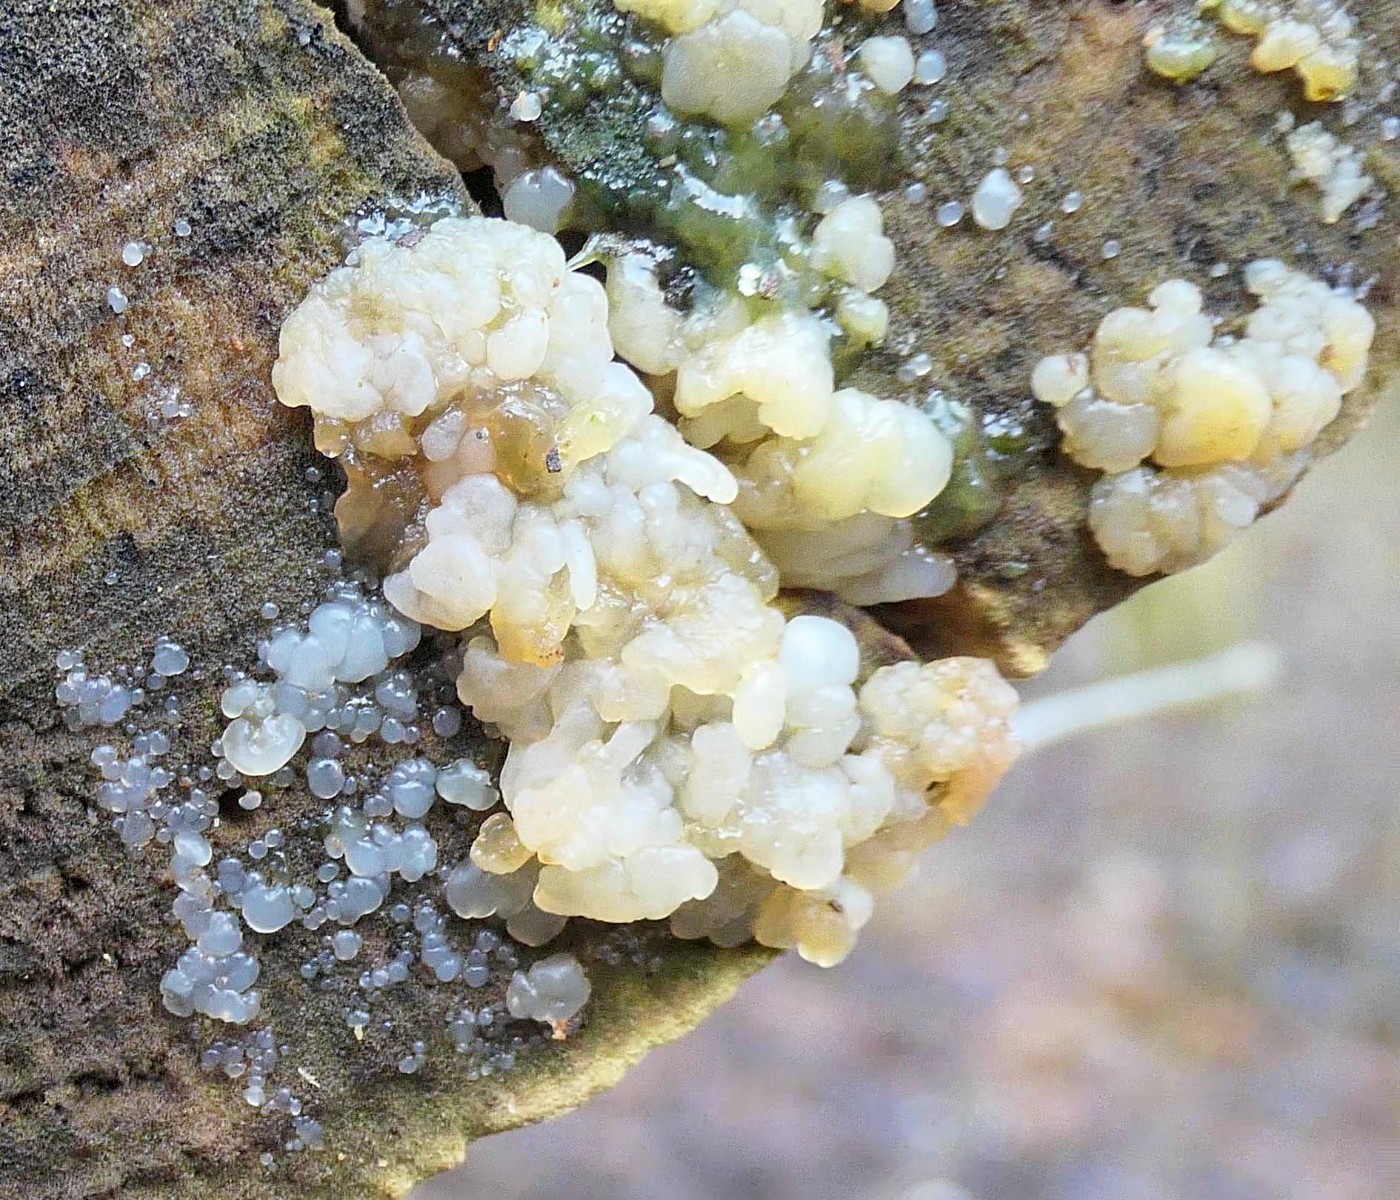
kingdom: Fungi
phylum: Basidiomycota
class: Agaricomycetes
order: Auriculariales
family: Hyaloriaceae
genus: Myxarium
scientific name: Myxarium
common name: bævretop
